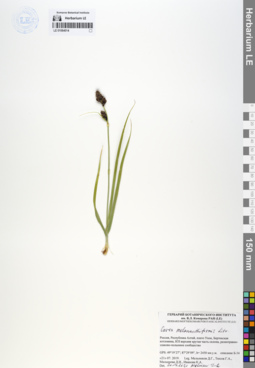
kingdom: Plantae
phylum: Tracheophyta
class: Liliopsida
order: Poales
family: Cyperaceae
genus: Carex
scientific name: Carex melananthiformis
